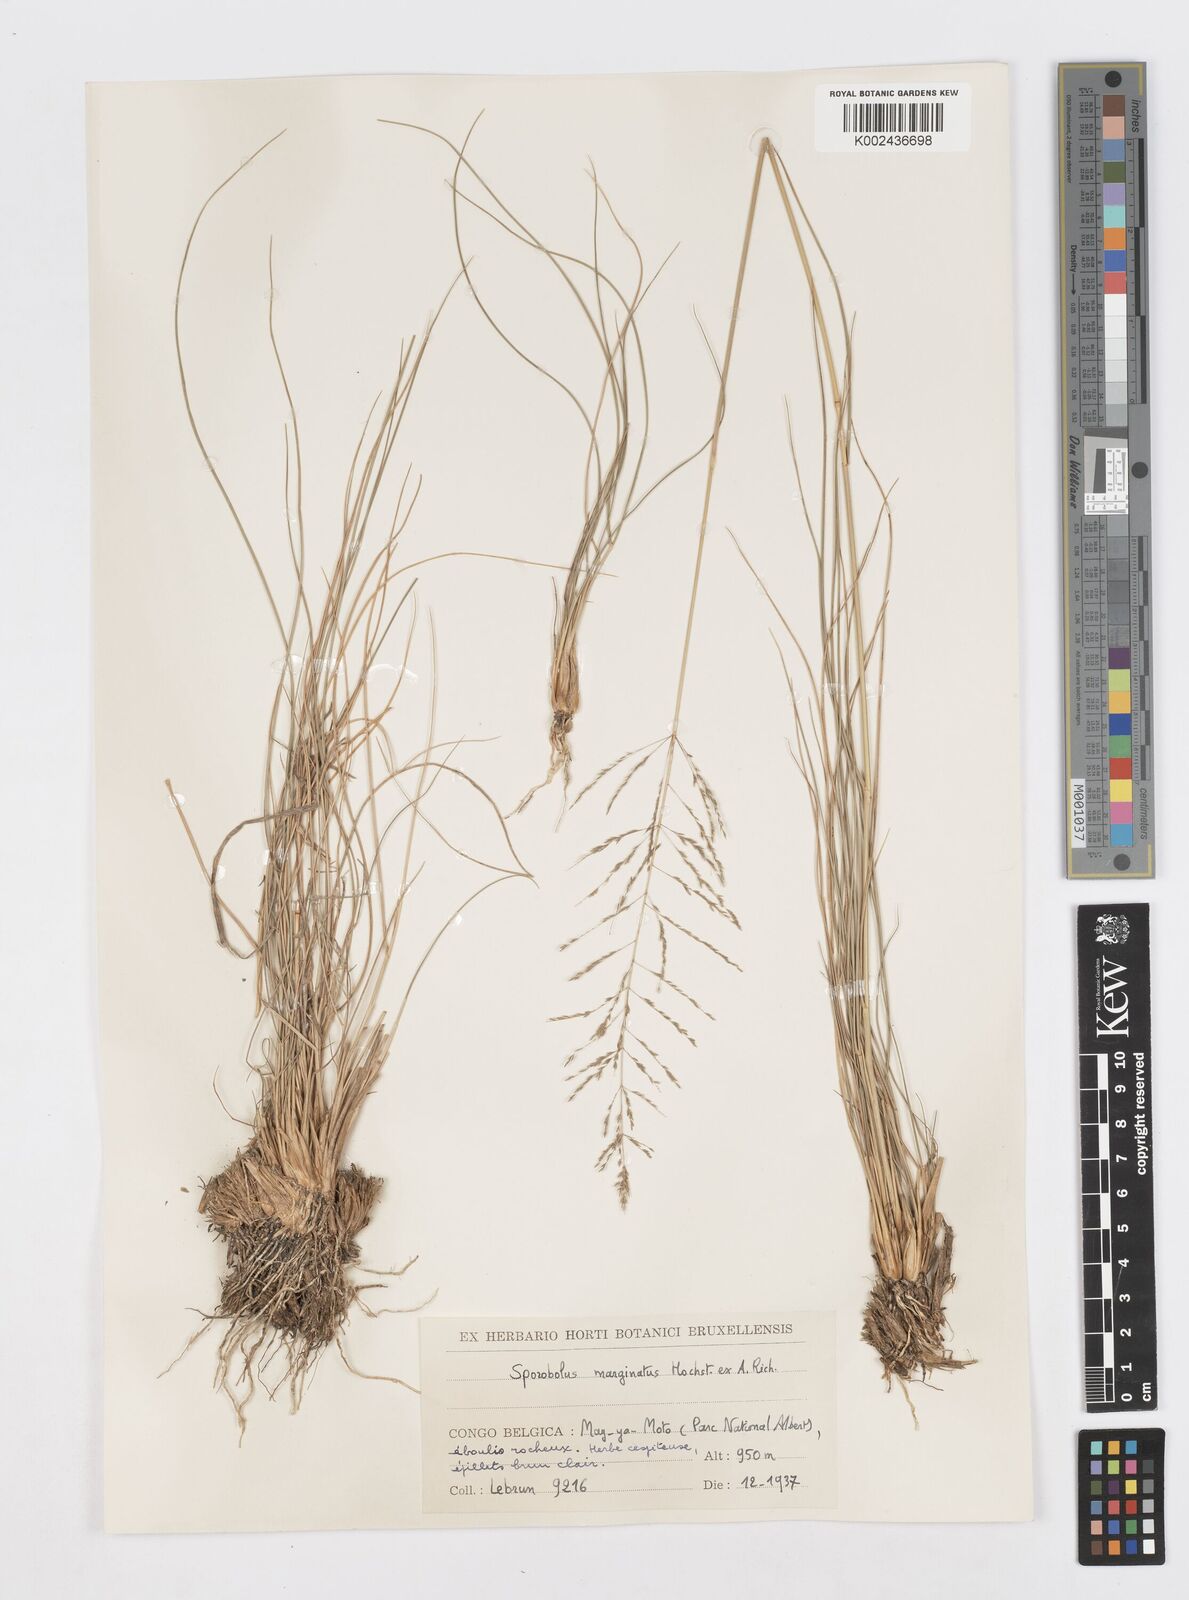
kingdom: Plantae
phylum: Tracheophyta
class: Liliopsida
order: Poales
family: Poaceae
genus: Sporobolus
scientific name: Sporobolus ioclados
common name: Pan dropseed
